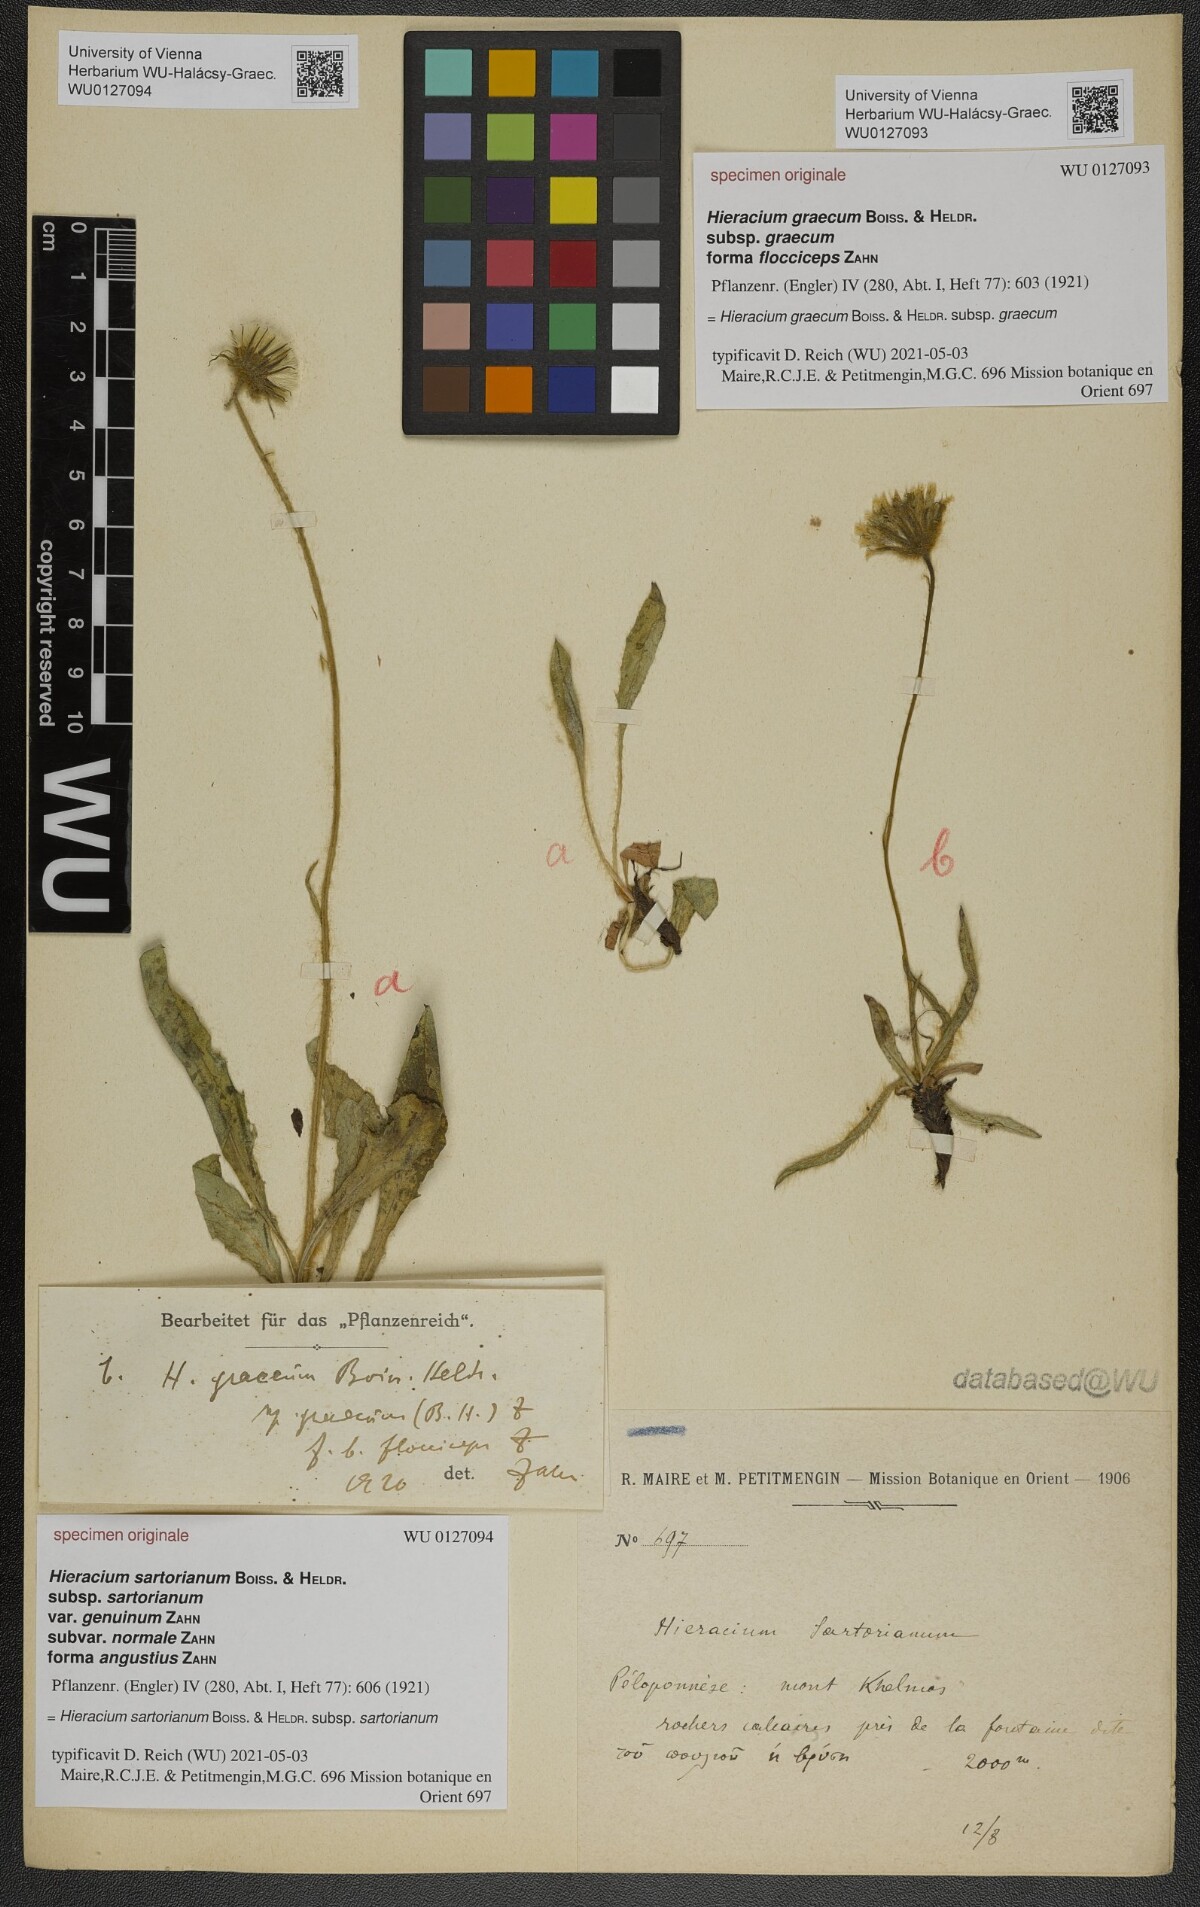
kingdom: Plantae
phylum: Tracheophyta
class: Magnoliopsida
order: Asterales
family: Asteraceae
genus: Hieracium
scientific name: Hieracium graecum
